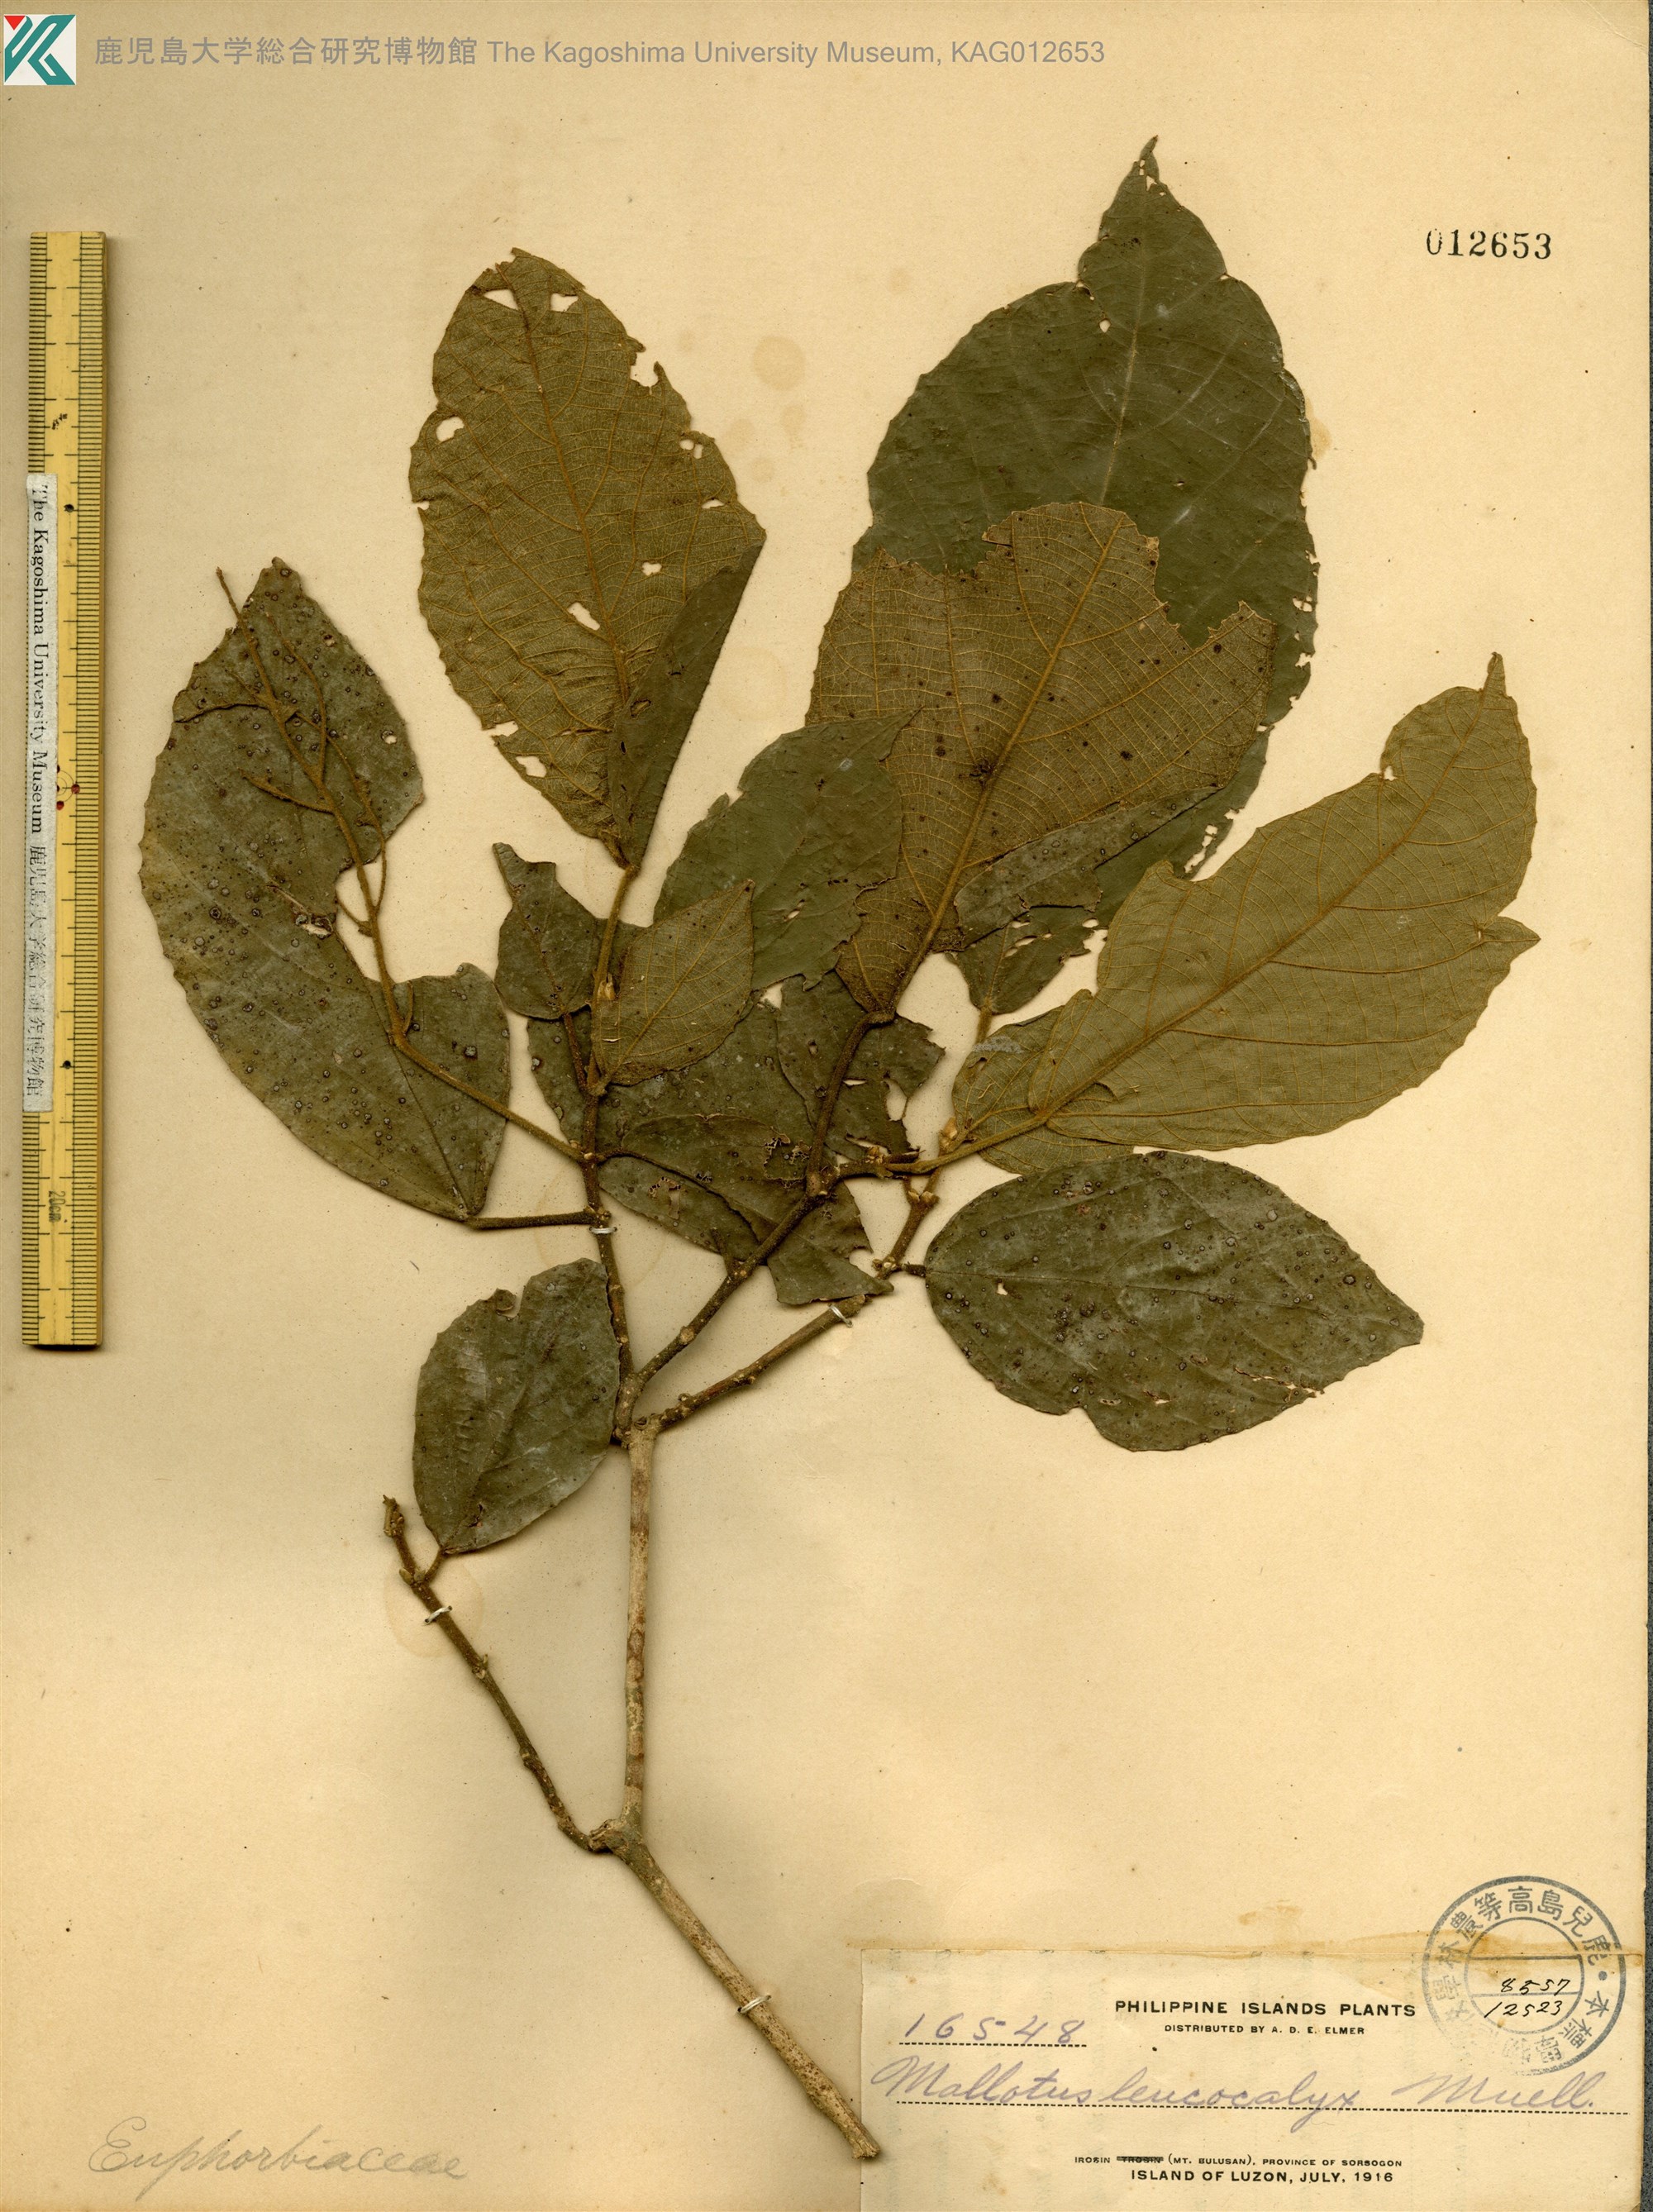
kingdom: Plantae
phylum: Tracheophyta
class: Magnoliopsida
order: Malpighiales
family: Euphorbiaceae
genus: Mallotus
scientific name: Mallotus leucocalyx
